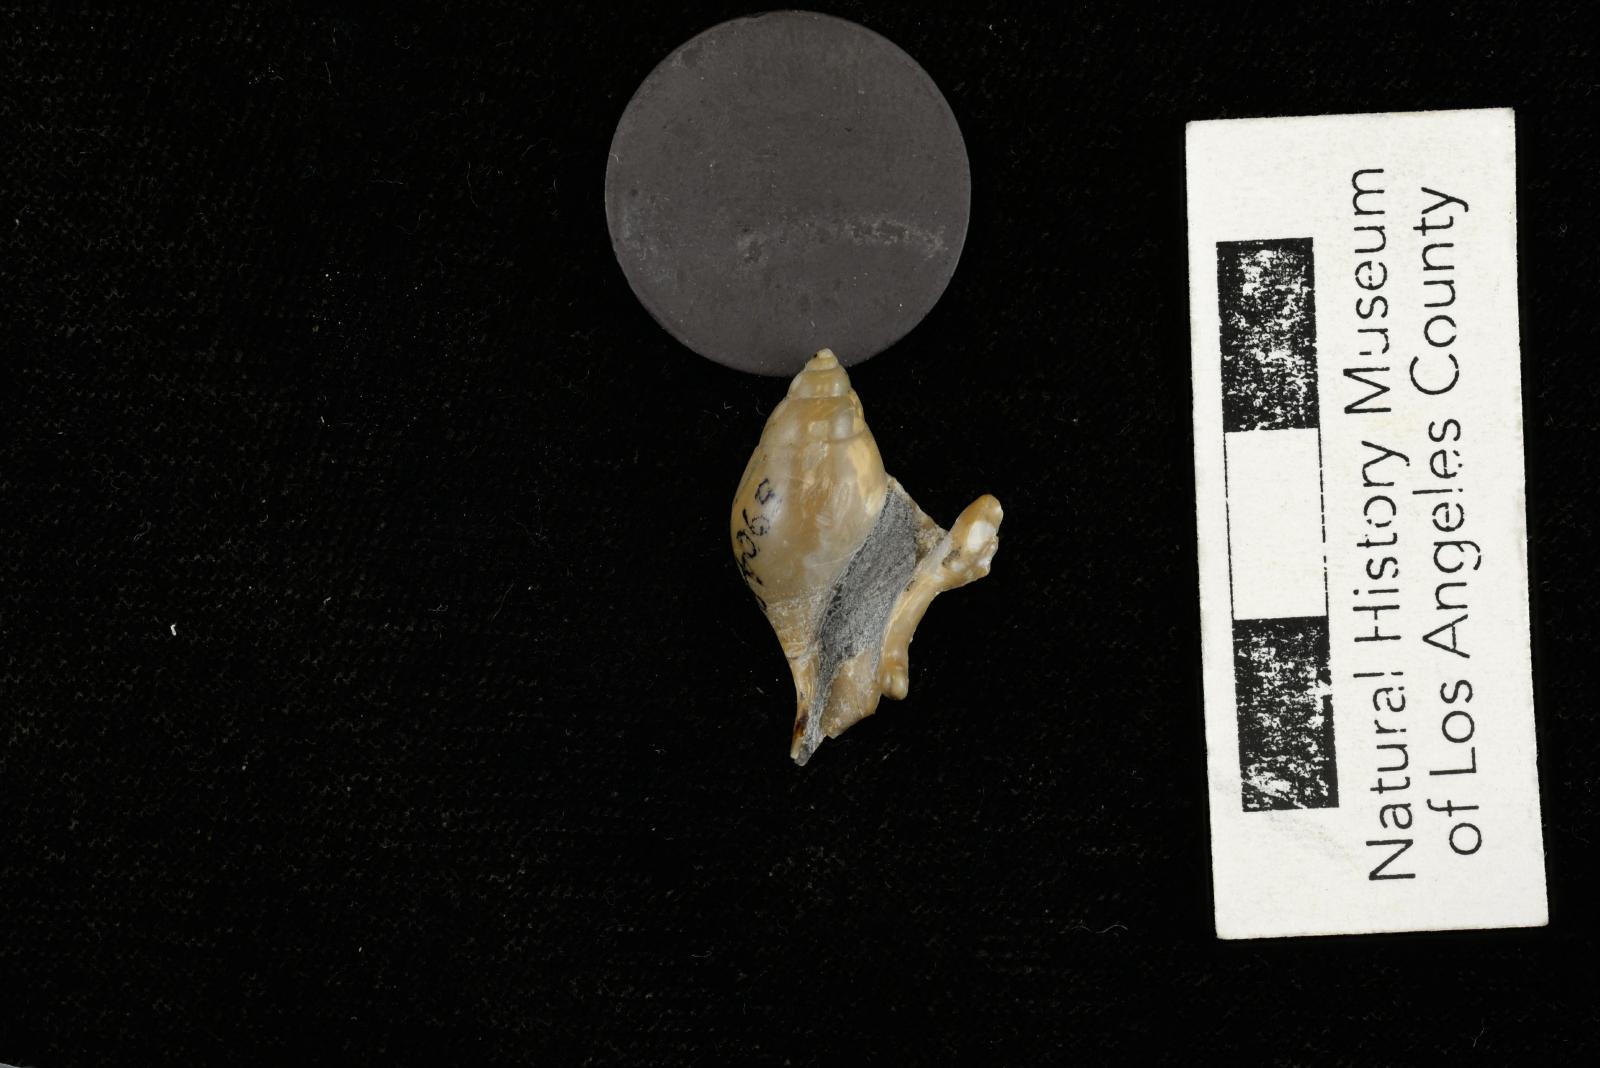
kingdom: Animalia
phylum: Mollusca
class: Gastropoda
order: Littorinimorpha
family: Aporrhaidae
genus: Pyktes
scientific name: Pyktes daiphron
